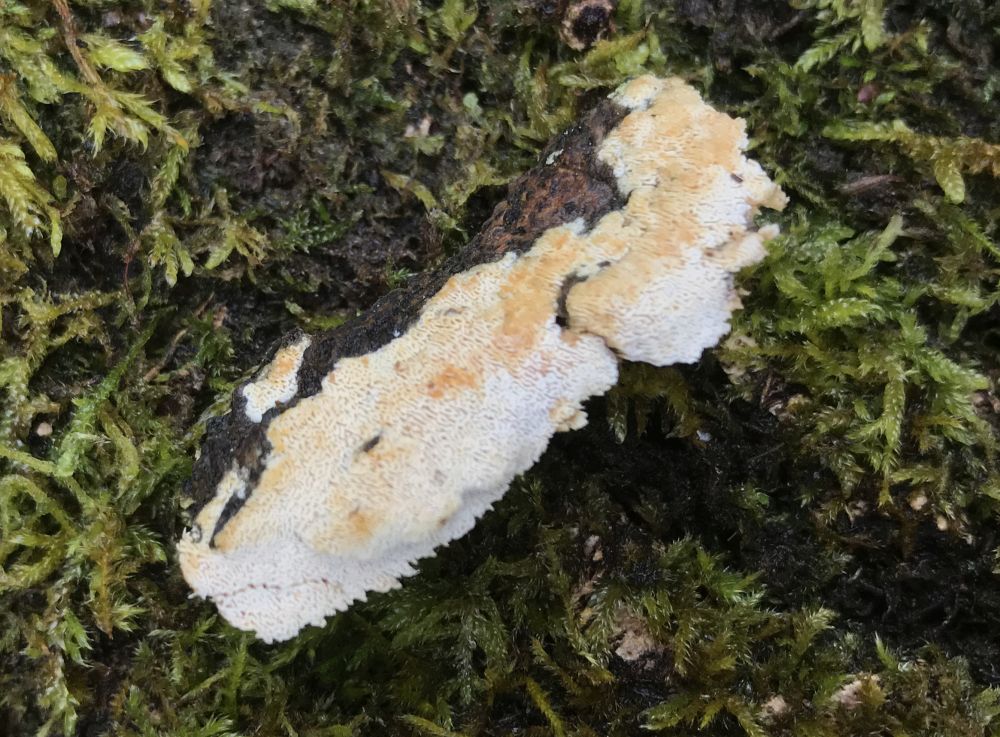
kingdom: Fungi
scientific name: Fungi
